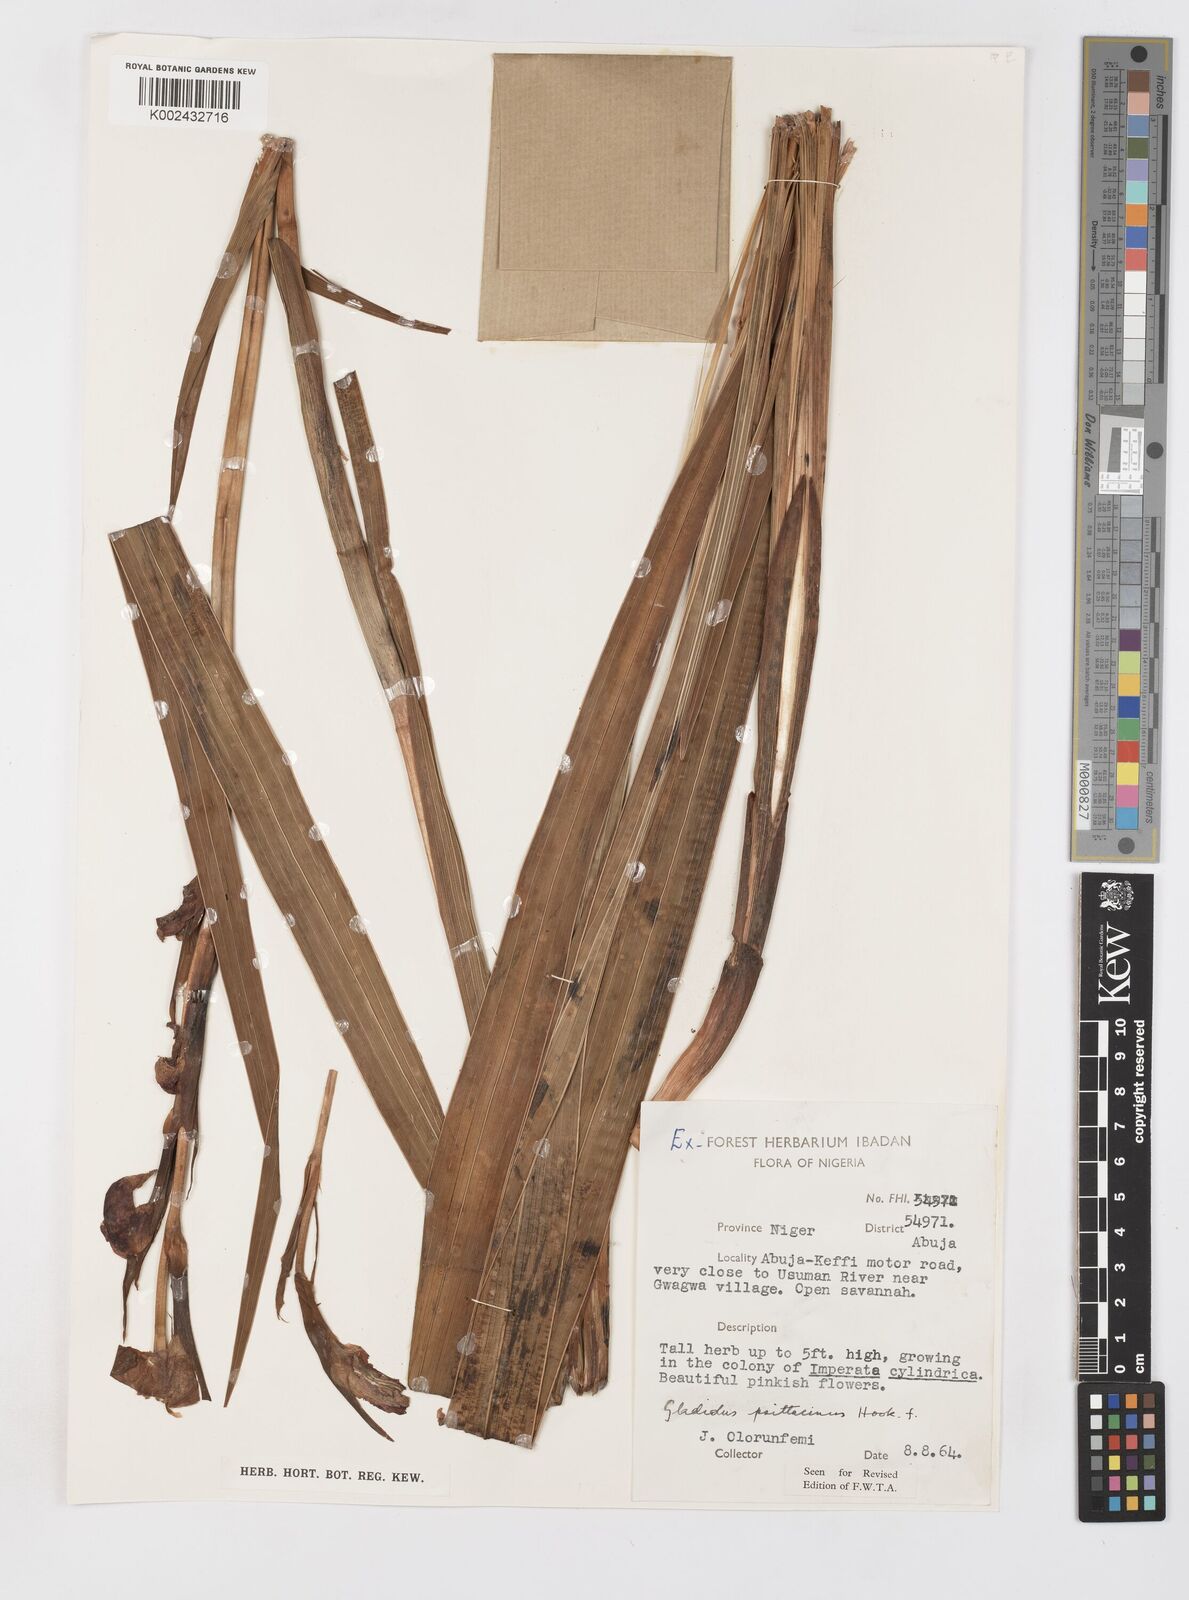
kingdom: Plantae
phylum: Tracheophyta
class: Liliopsida
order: Asparagales
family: Iridaceae
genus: Gladiolus
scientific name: Gladiolus dalenii
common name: Cornflag
